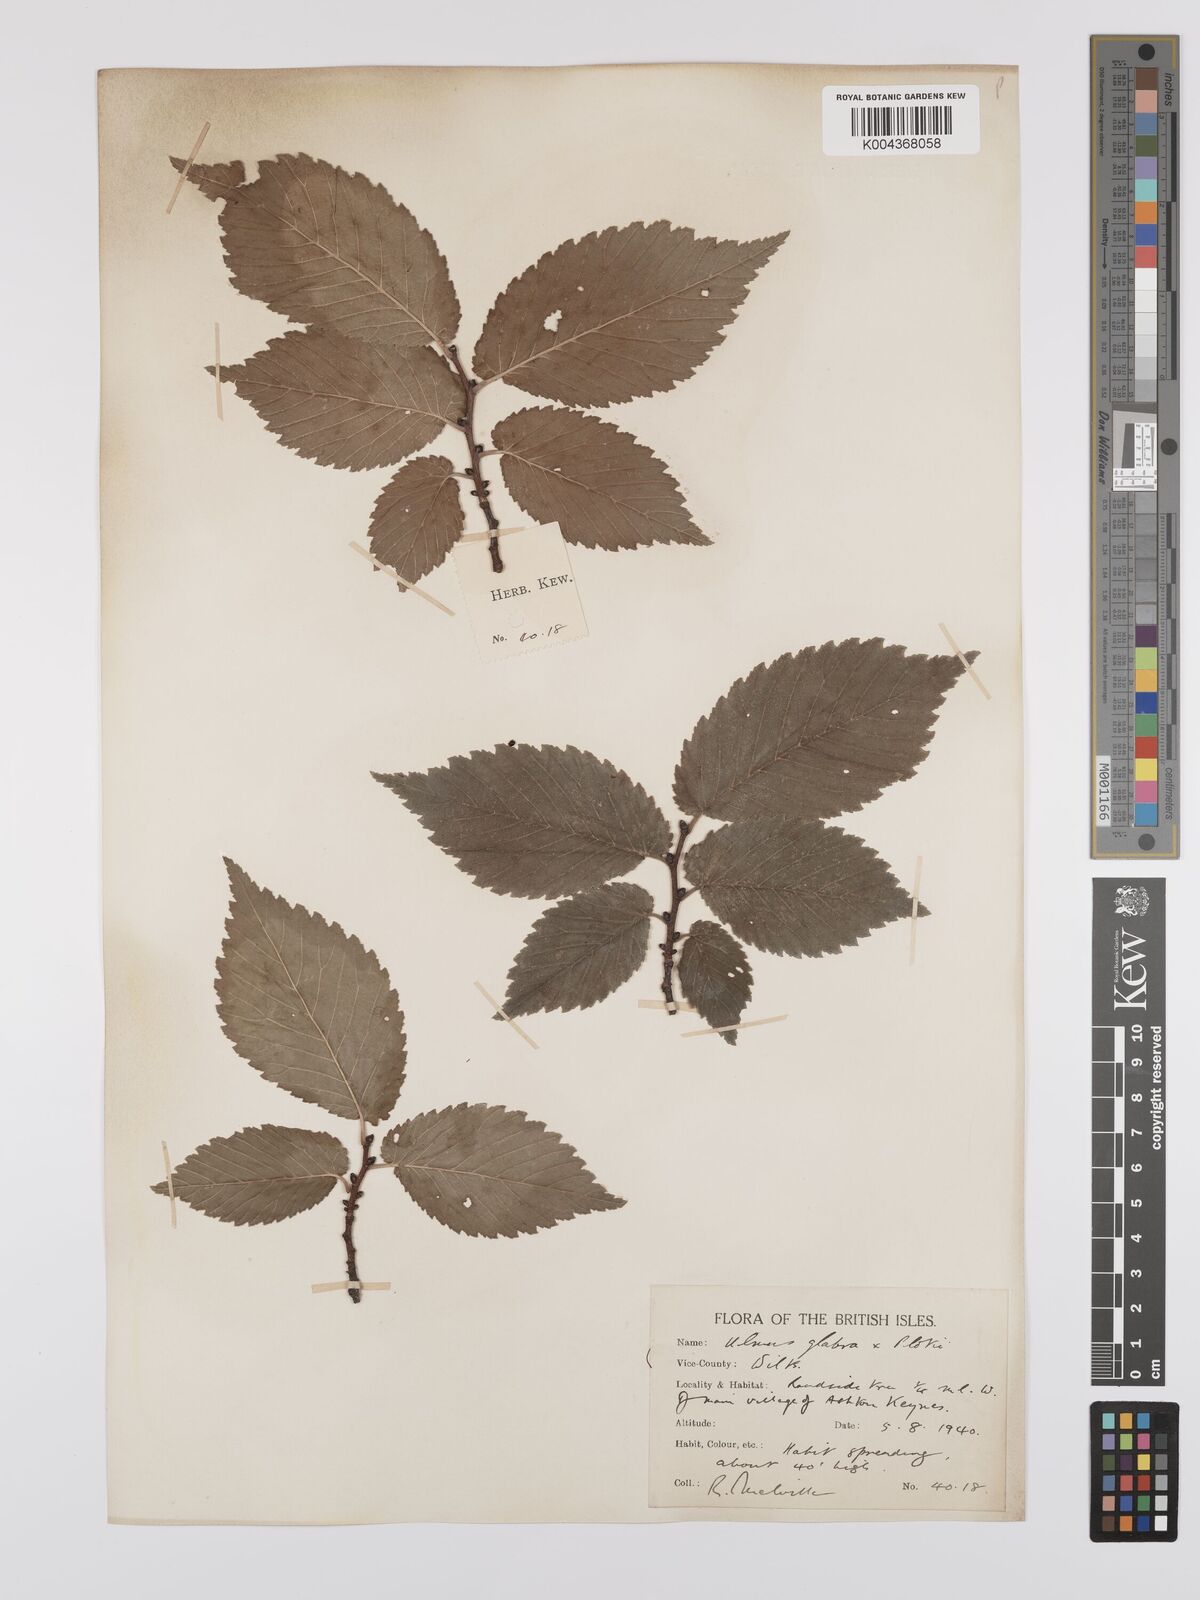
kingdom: Plantae
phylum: Tracheophyta
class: Magnoliopsida
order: Rosales
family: Ulmaceae
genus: Ulmus
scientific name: Ulmus
